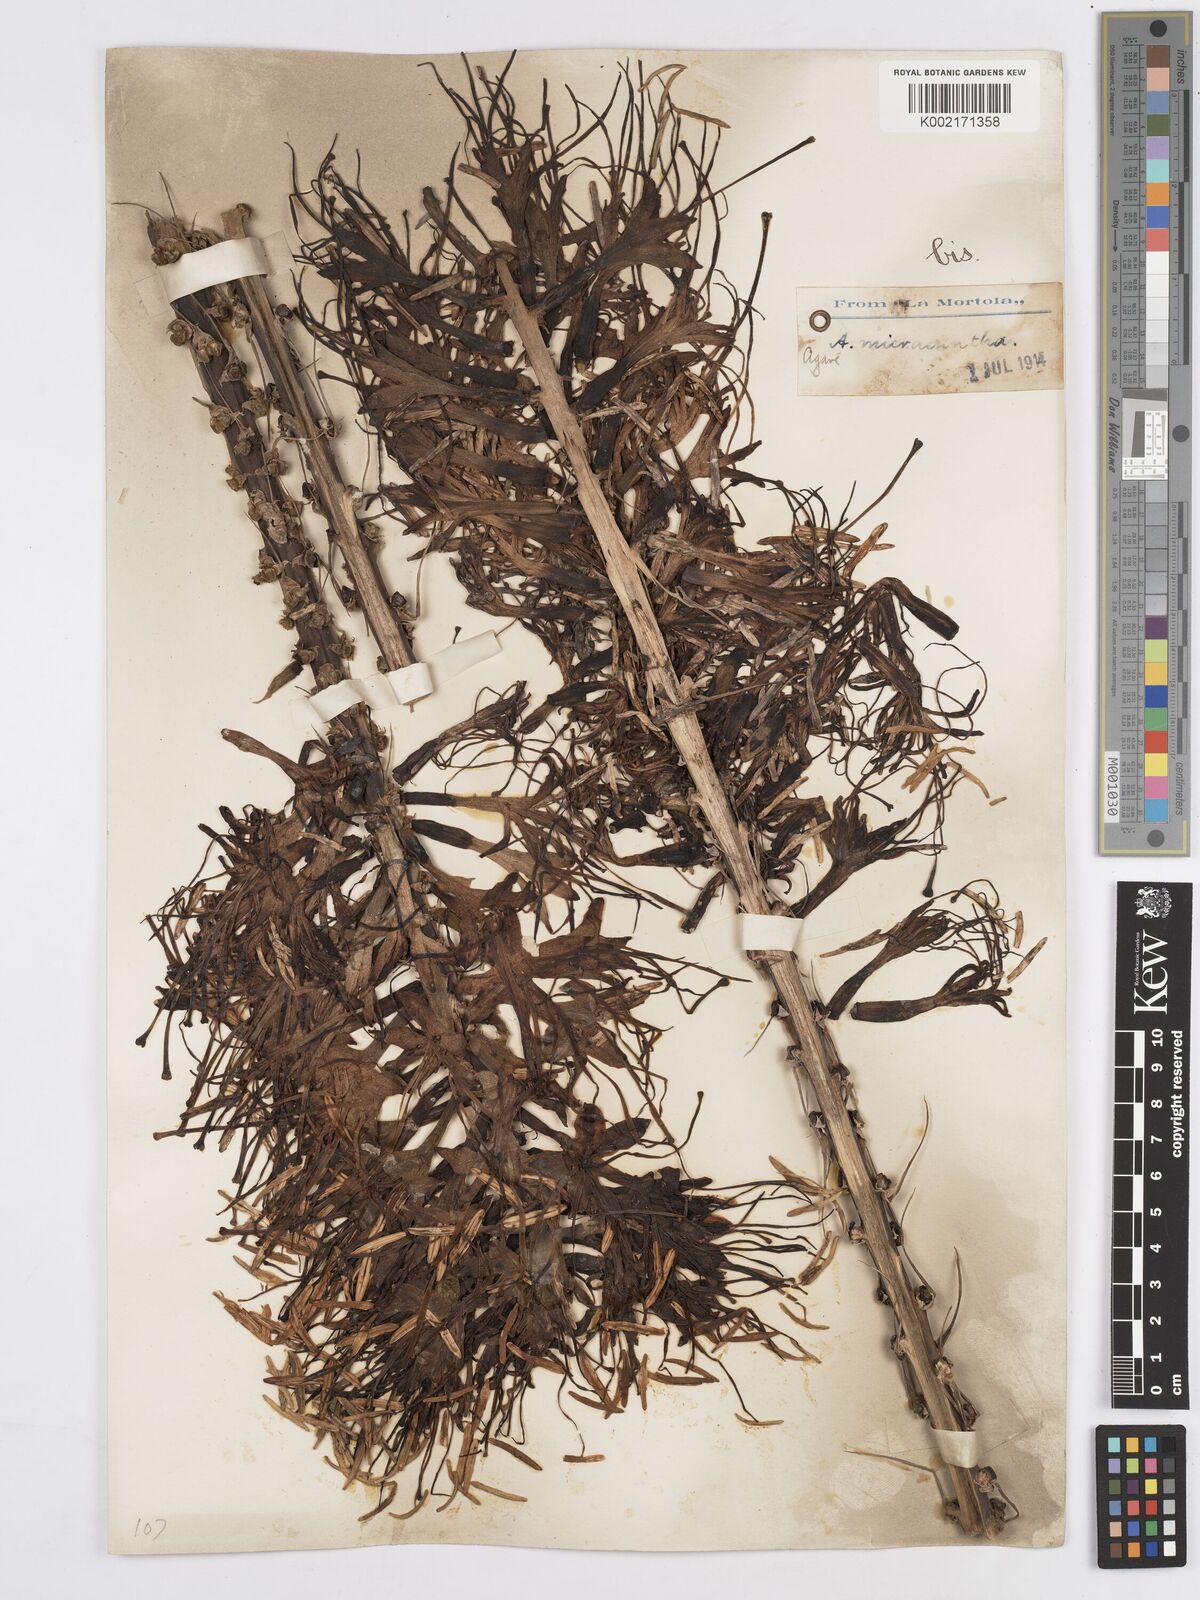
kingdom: Plantae
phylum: Tracheophyta
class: Liliopsida
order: Asparagales
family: Asparagaceae
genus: Agave
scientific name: Agave mitis
